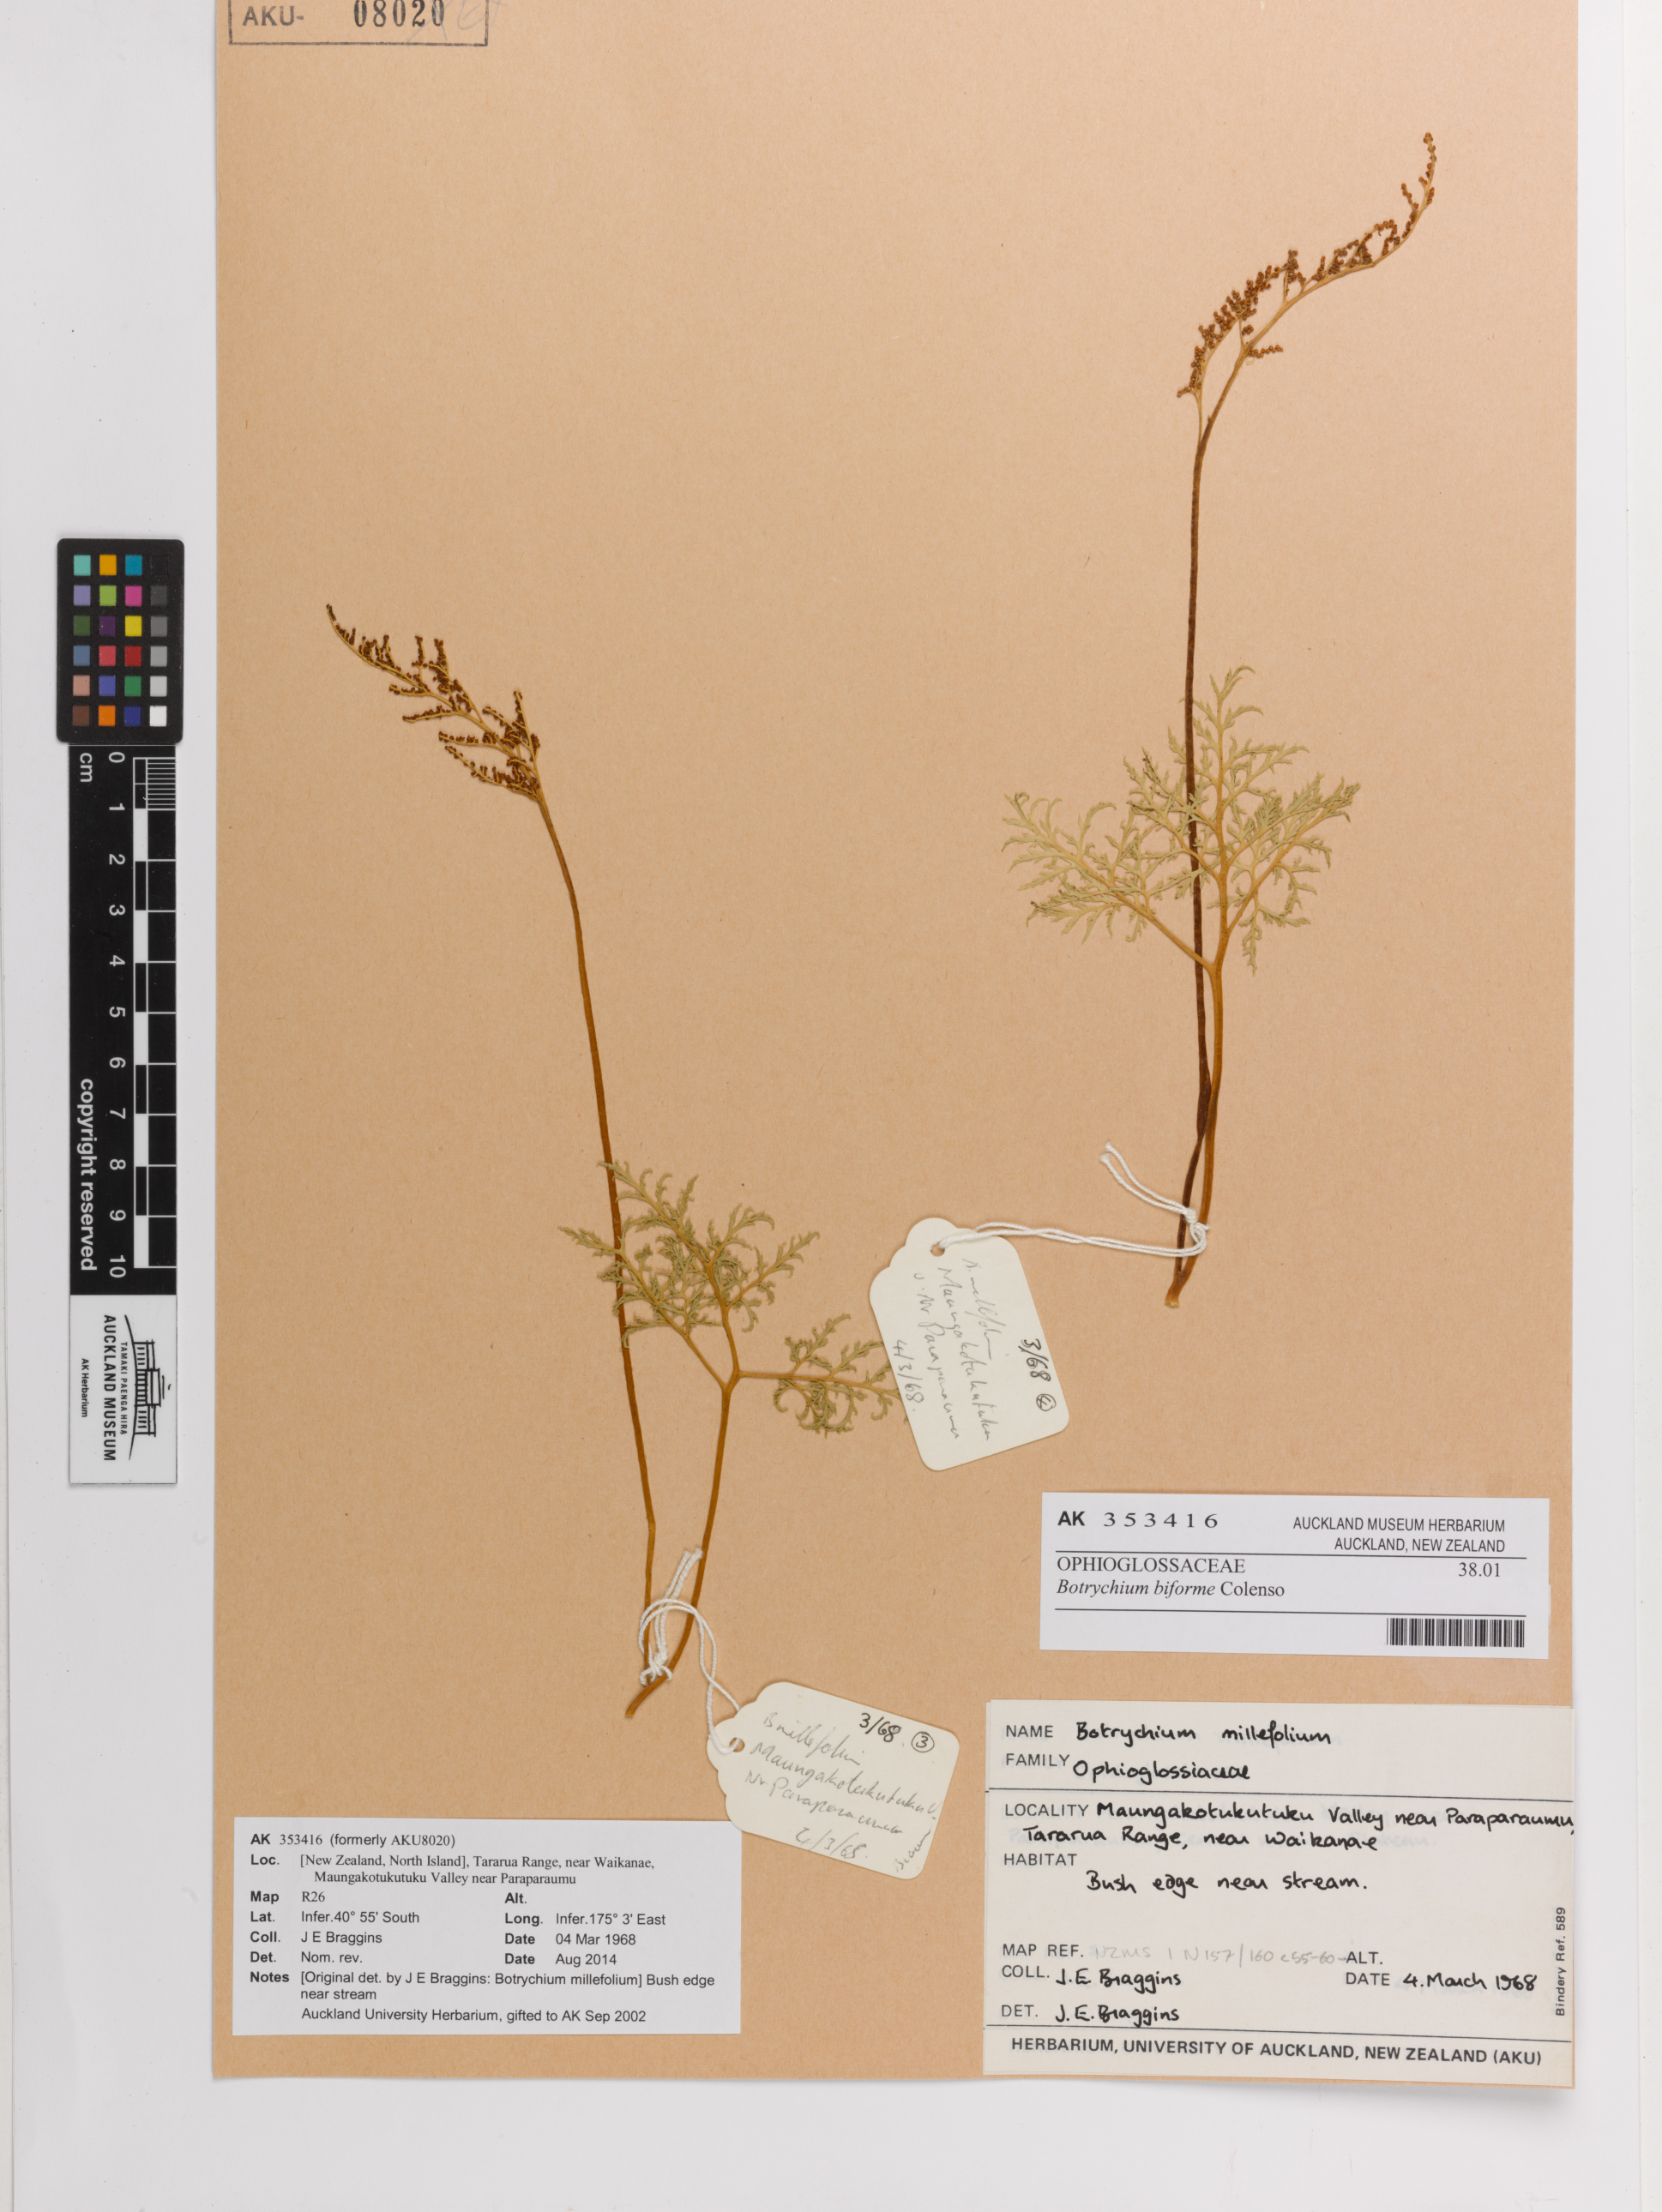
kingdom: Plantae
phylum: Tracheophyta
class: Polypodiopsida
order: Ophioglossales
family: Ophioglossaceae
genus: Sceptridium
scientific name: Sceptridium biforme
